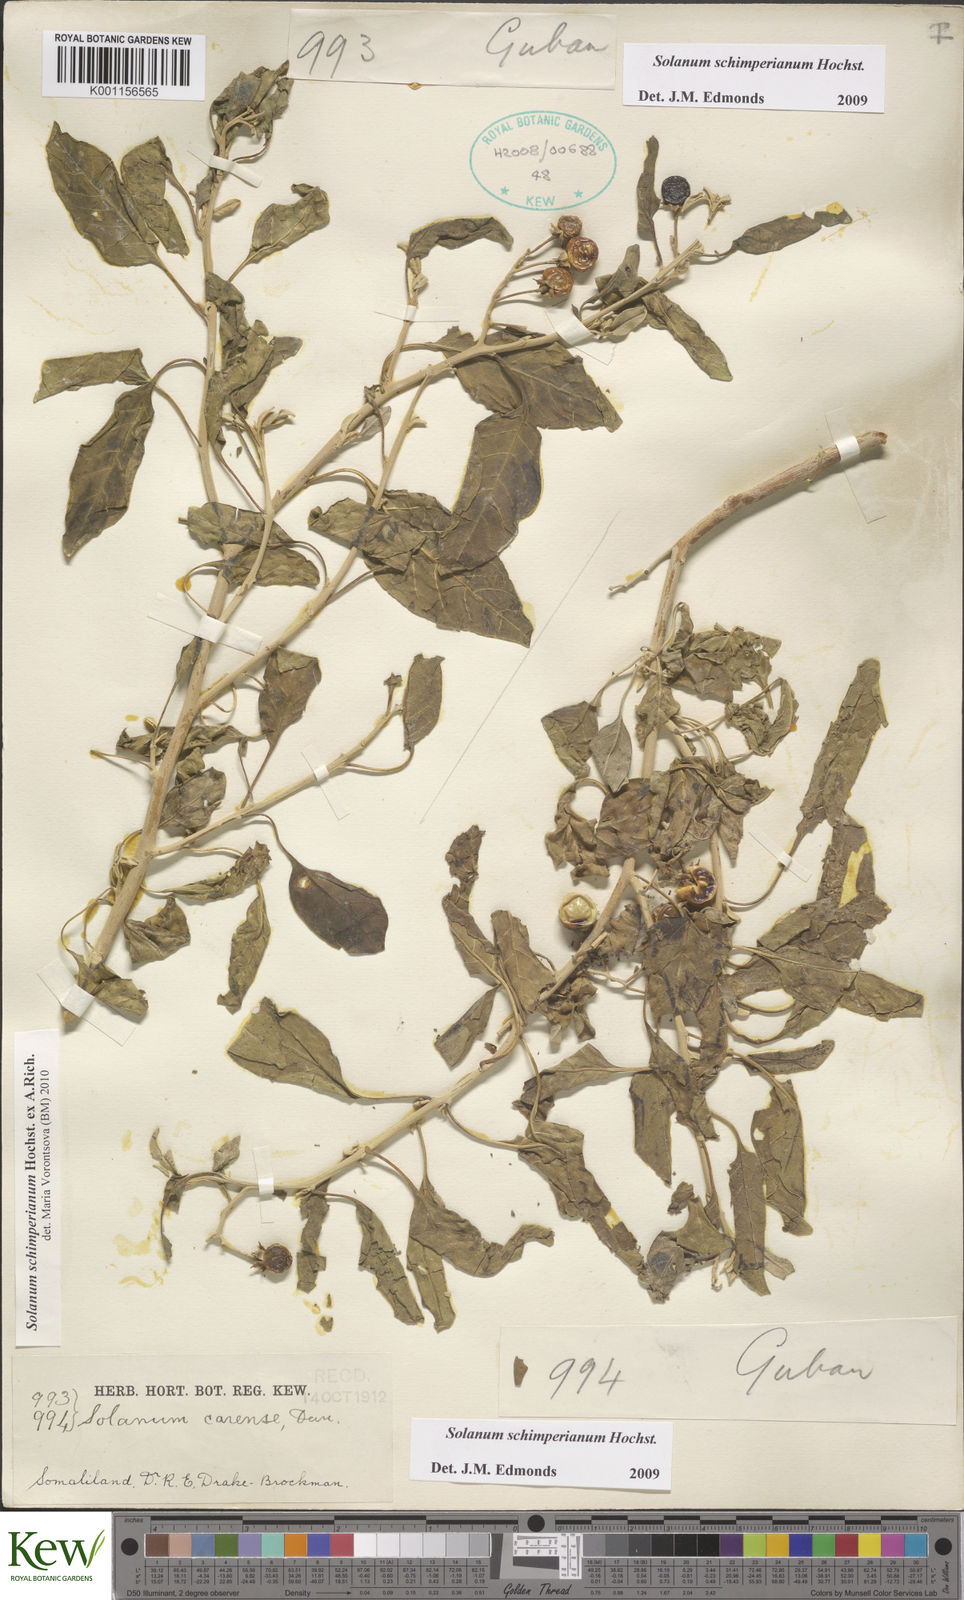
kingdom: Plantae
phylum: Tracheophyta
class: Magnoliopsida
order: Solanales
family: Solanaceae
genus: Solanum
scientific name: Solanum
